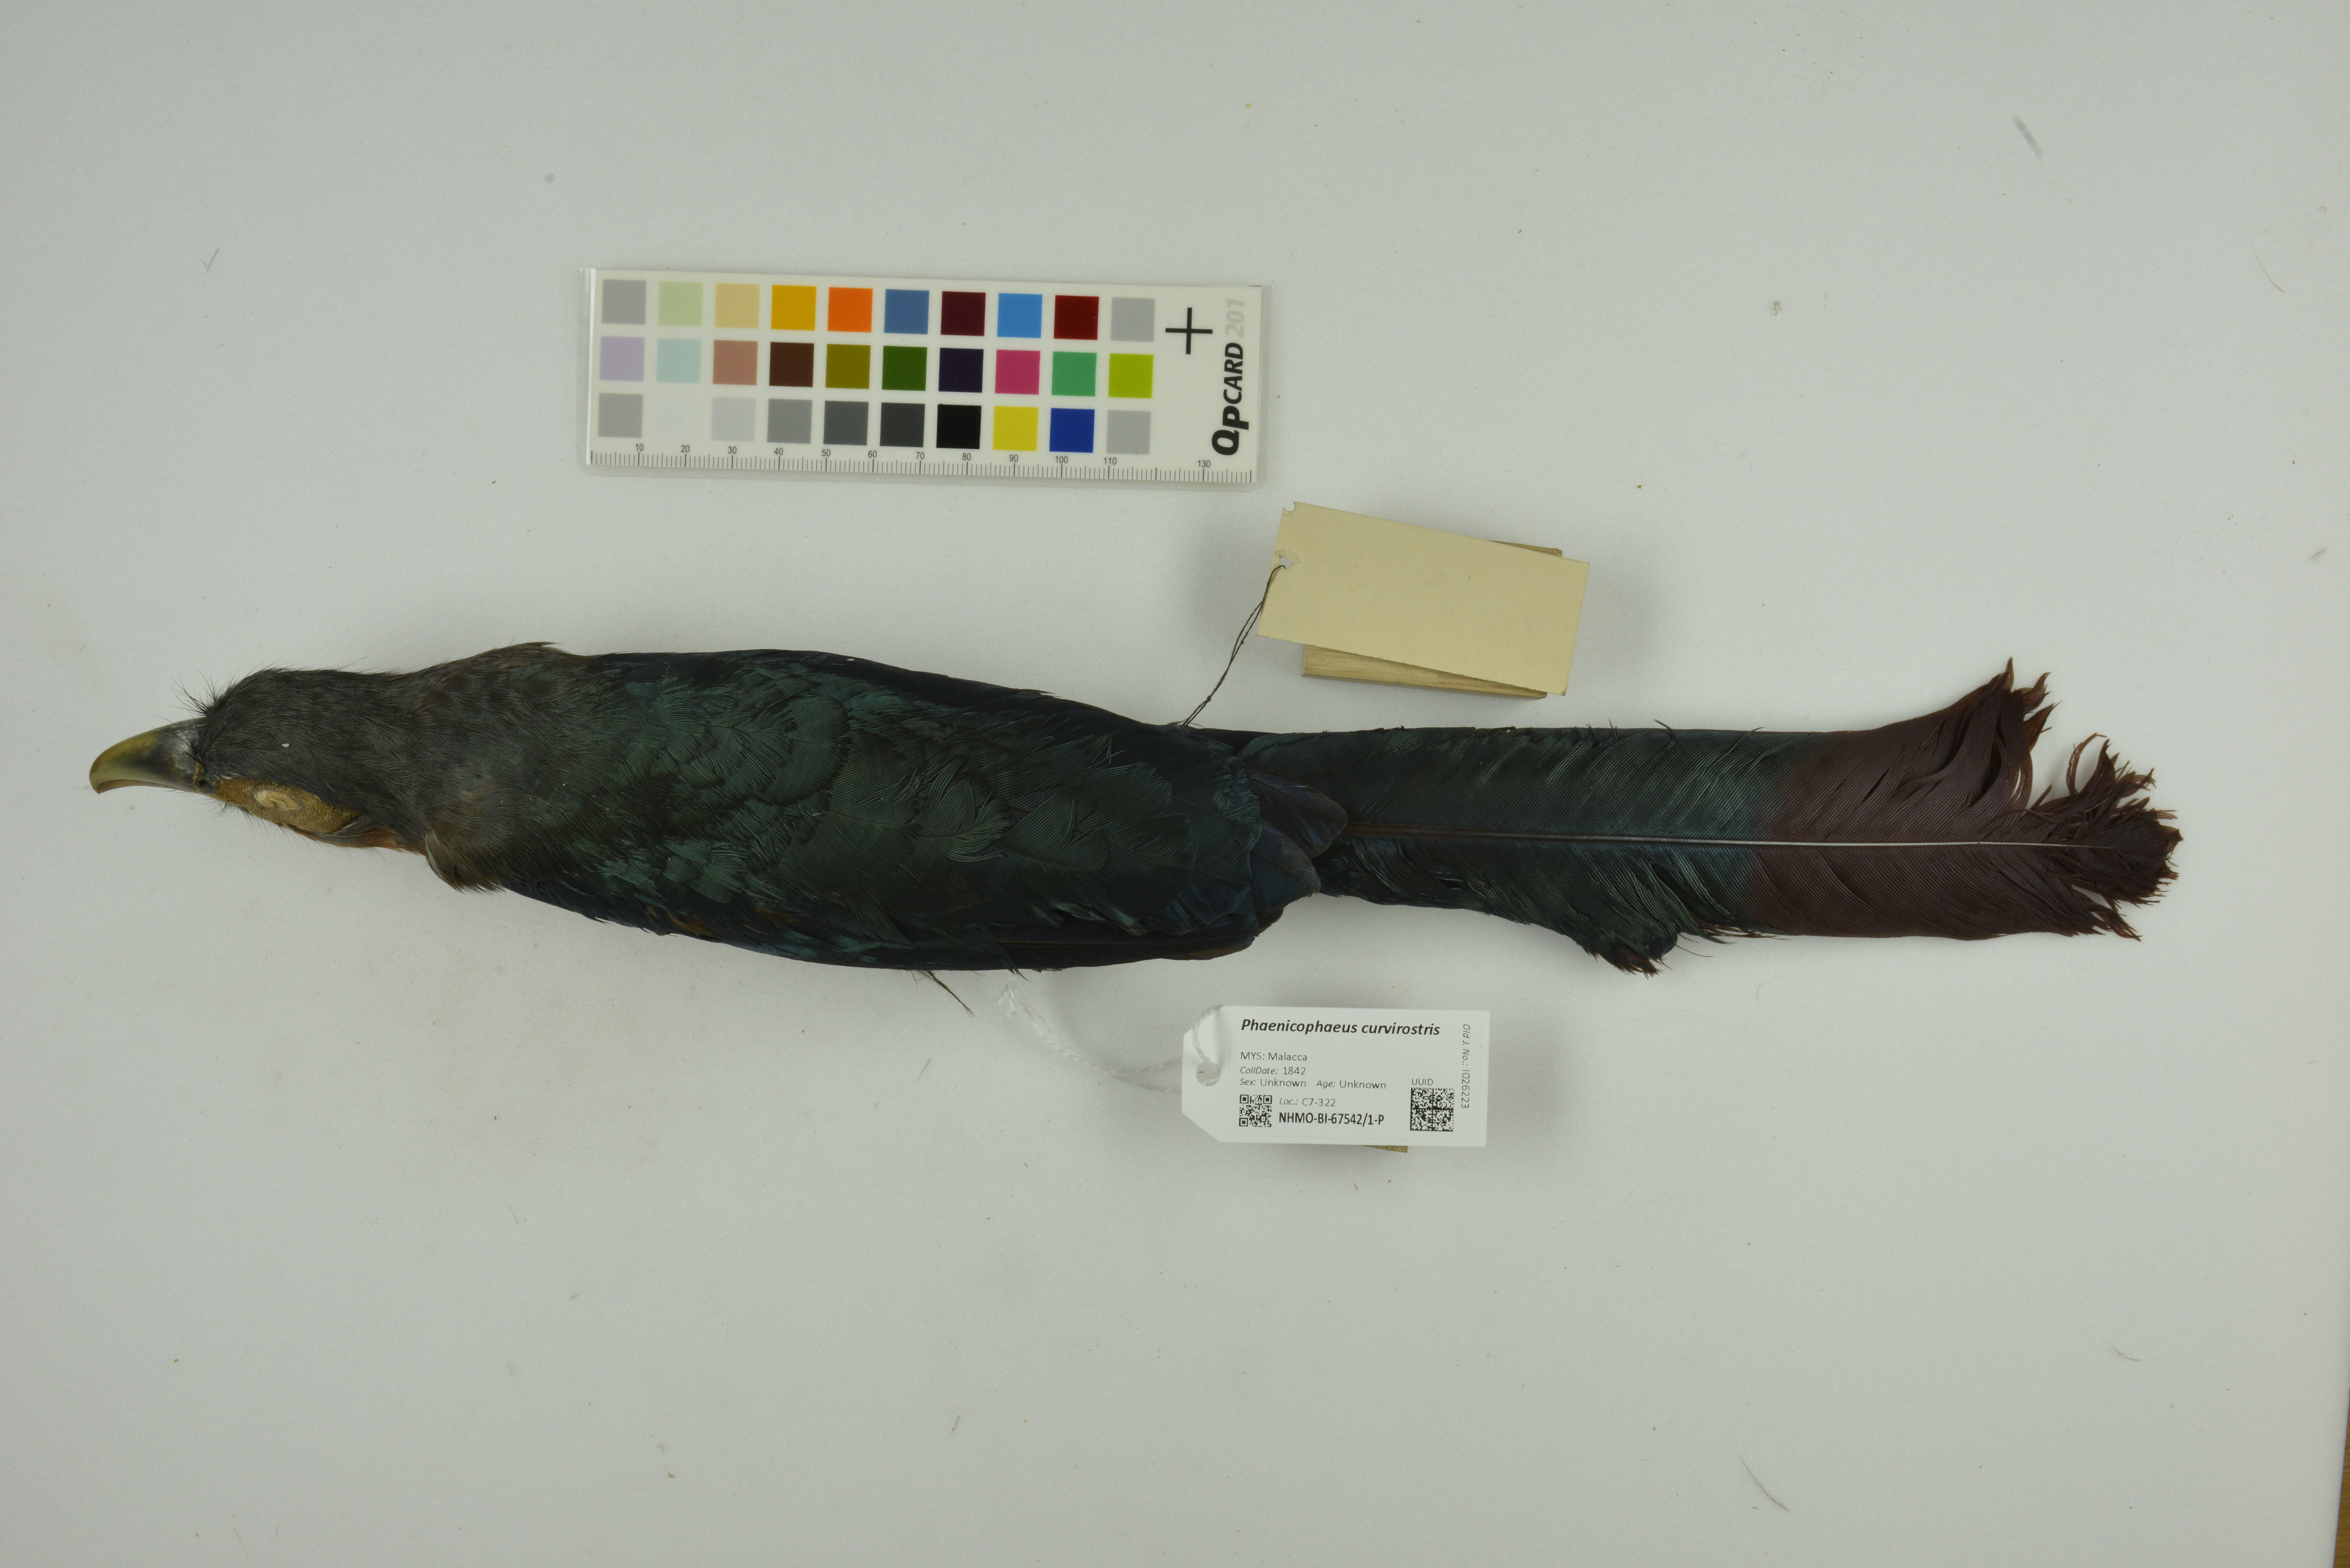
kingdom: Animalia
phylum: Chordata
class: Aves
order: Cuculiformes
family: Cuculidae
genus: Zanclostomus
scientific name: Zanclostomus curvirostris
